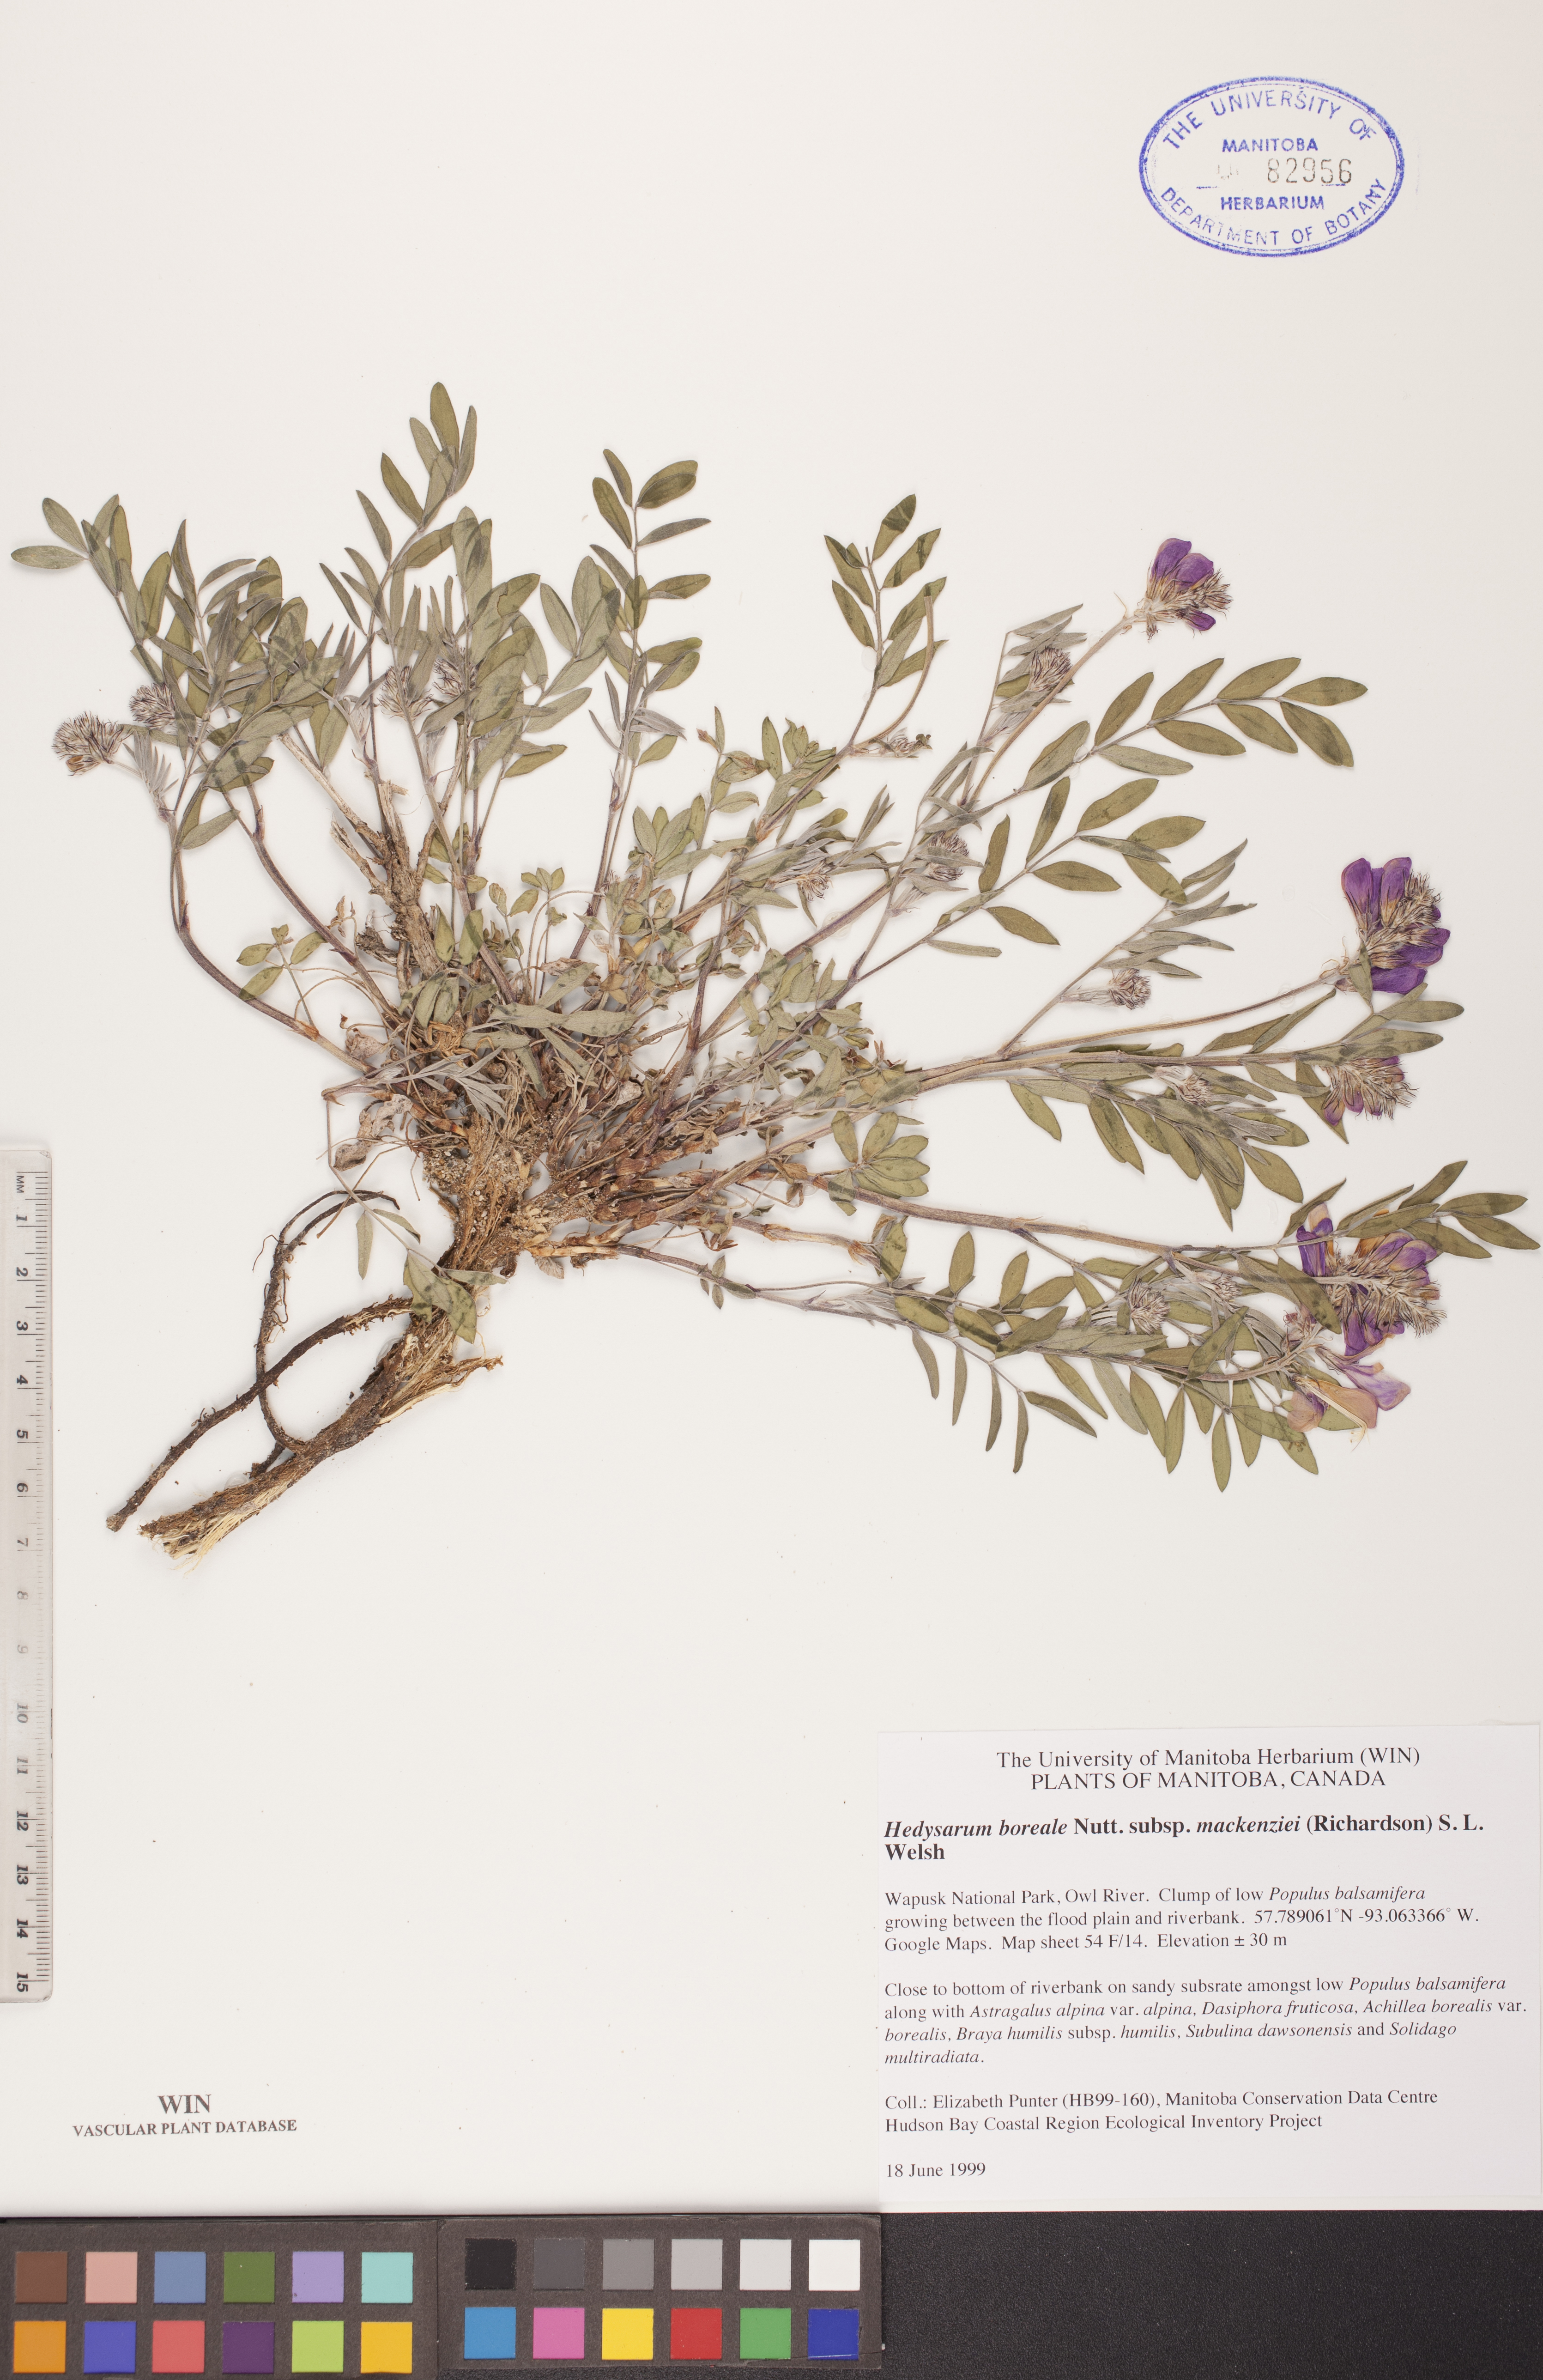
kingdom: Plantae
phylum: Tracheophyta
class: Magnoliopsida
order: Fabales
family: Fabaceae
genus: Hedysarum
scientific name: Hedysarum boreale
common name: Northern sweet-vetch
